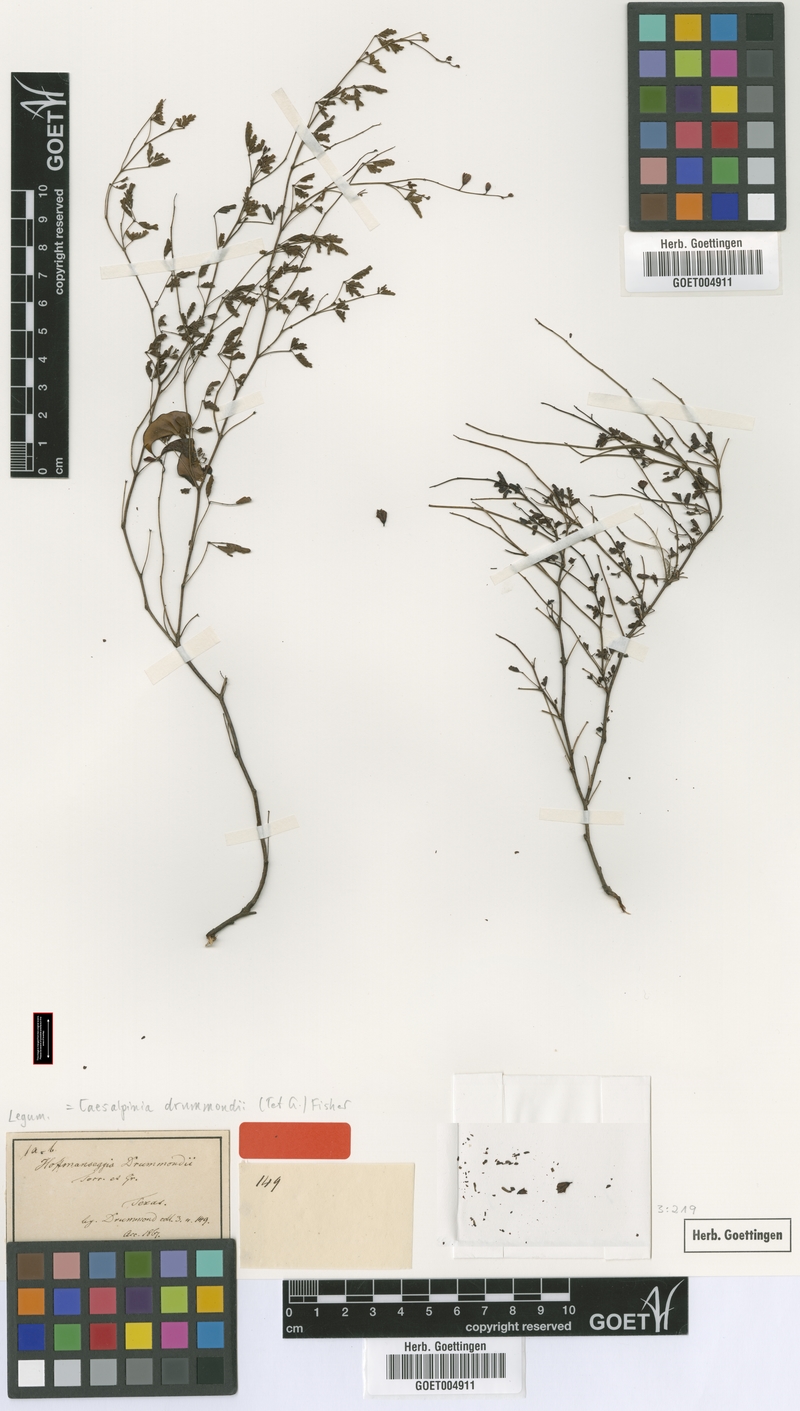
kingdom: Plantae
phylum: Tracheophyta
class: Magnoliopsida
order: Fabales
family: Fabaceae
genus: Hoffmannseggia
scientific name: Hoffmannseggia drummondii
